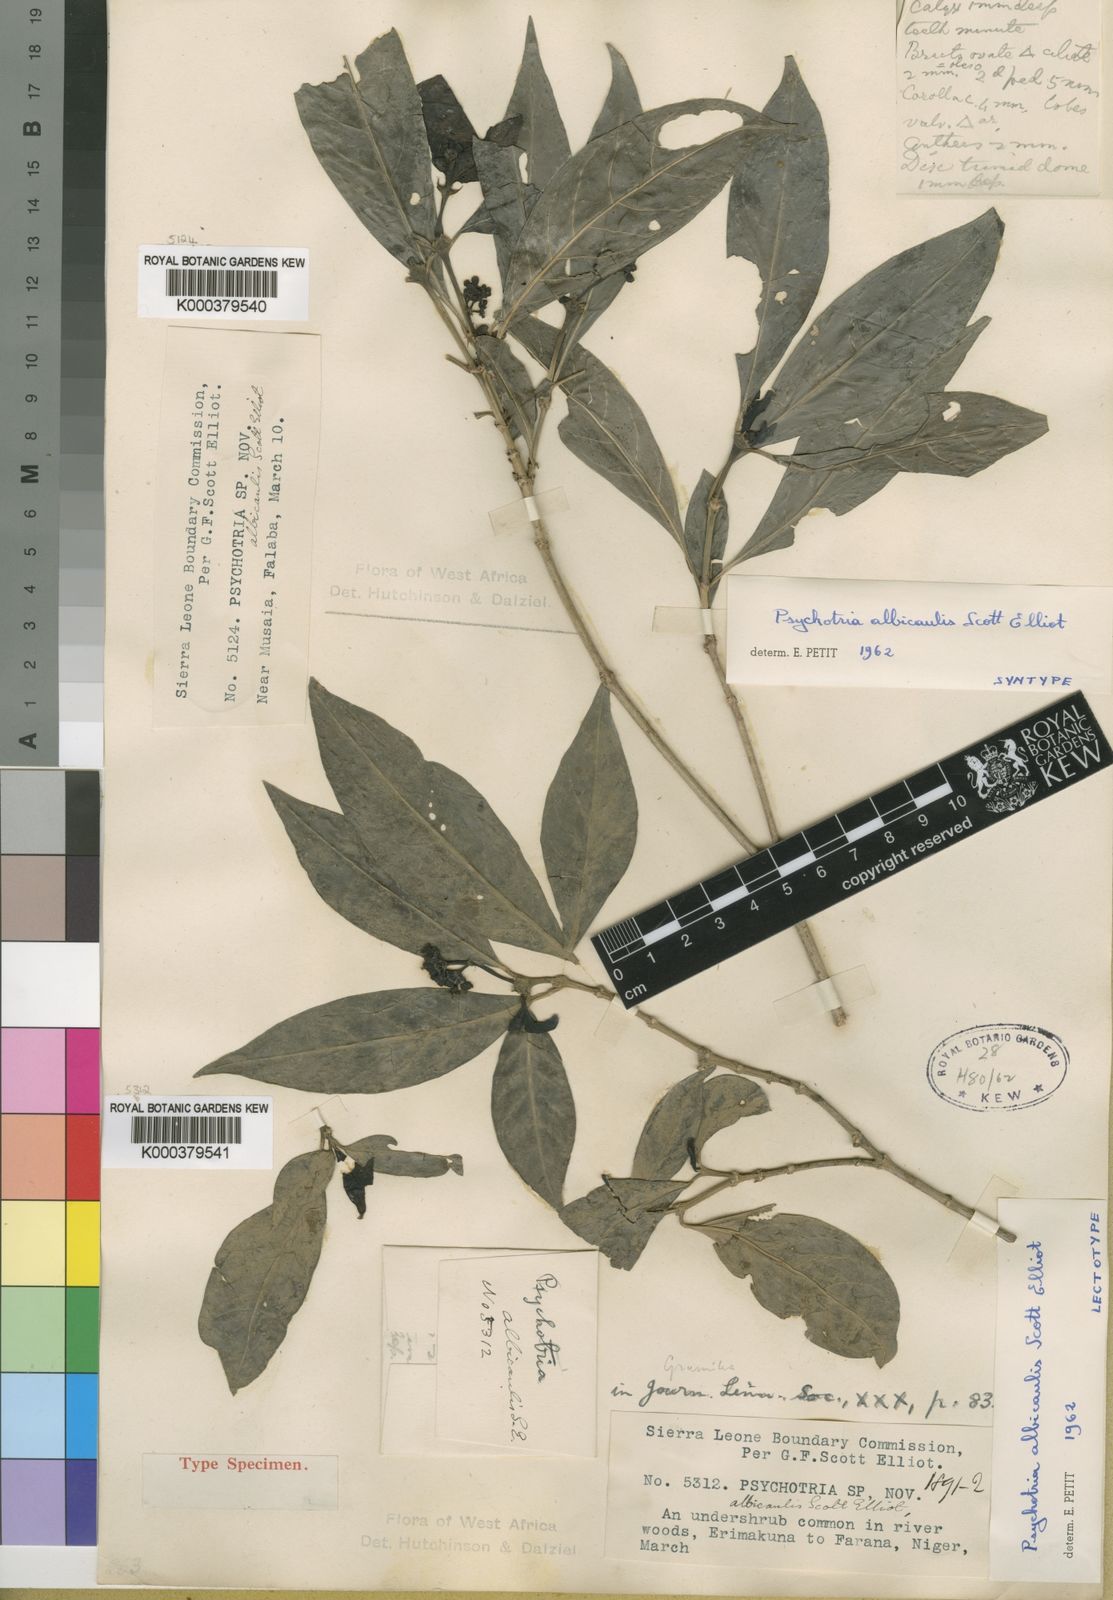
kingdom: Plantae
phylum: Tracheophyta
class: Magnoliopsida
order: Gentianales
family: Rubiaceae
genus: Psychotria
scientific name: Psychotria albicaulis
